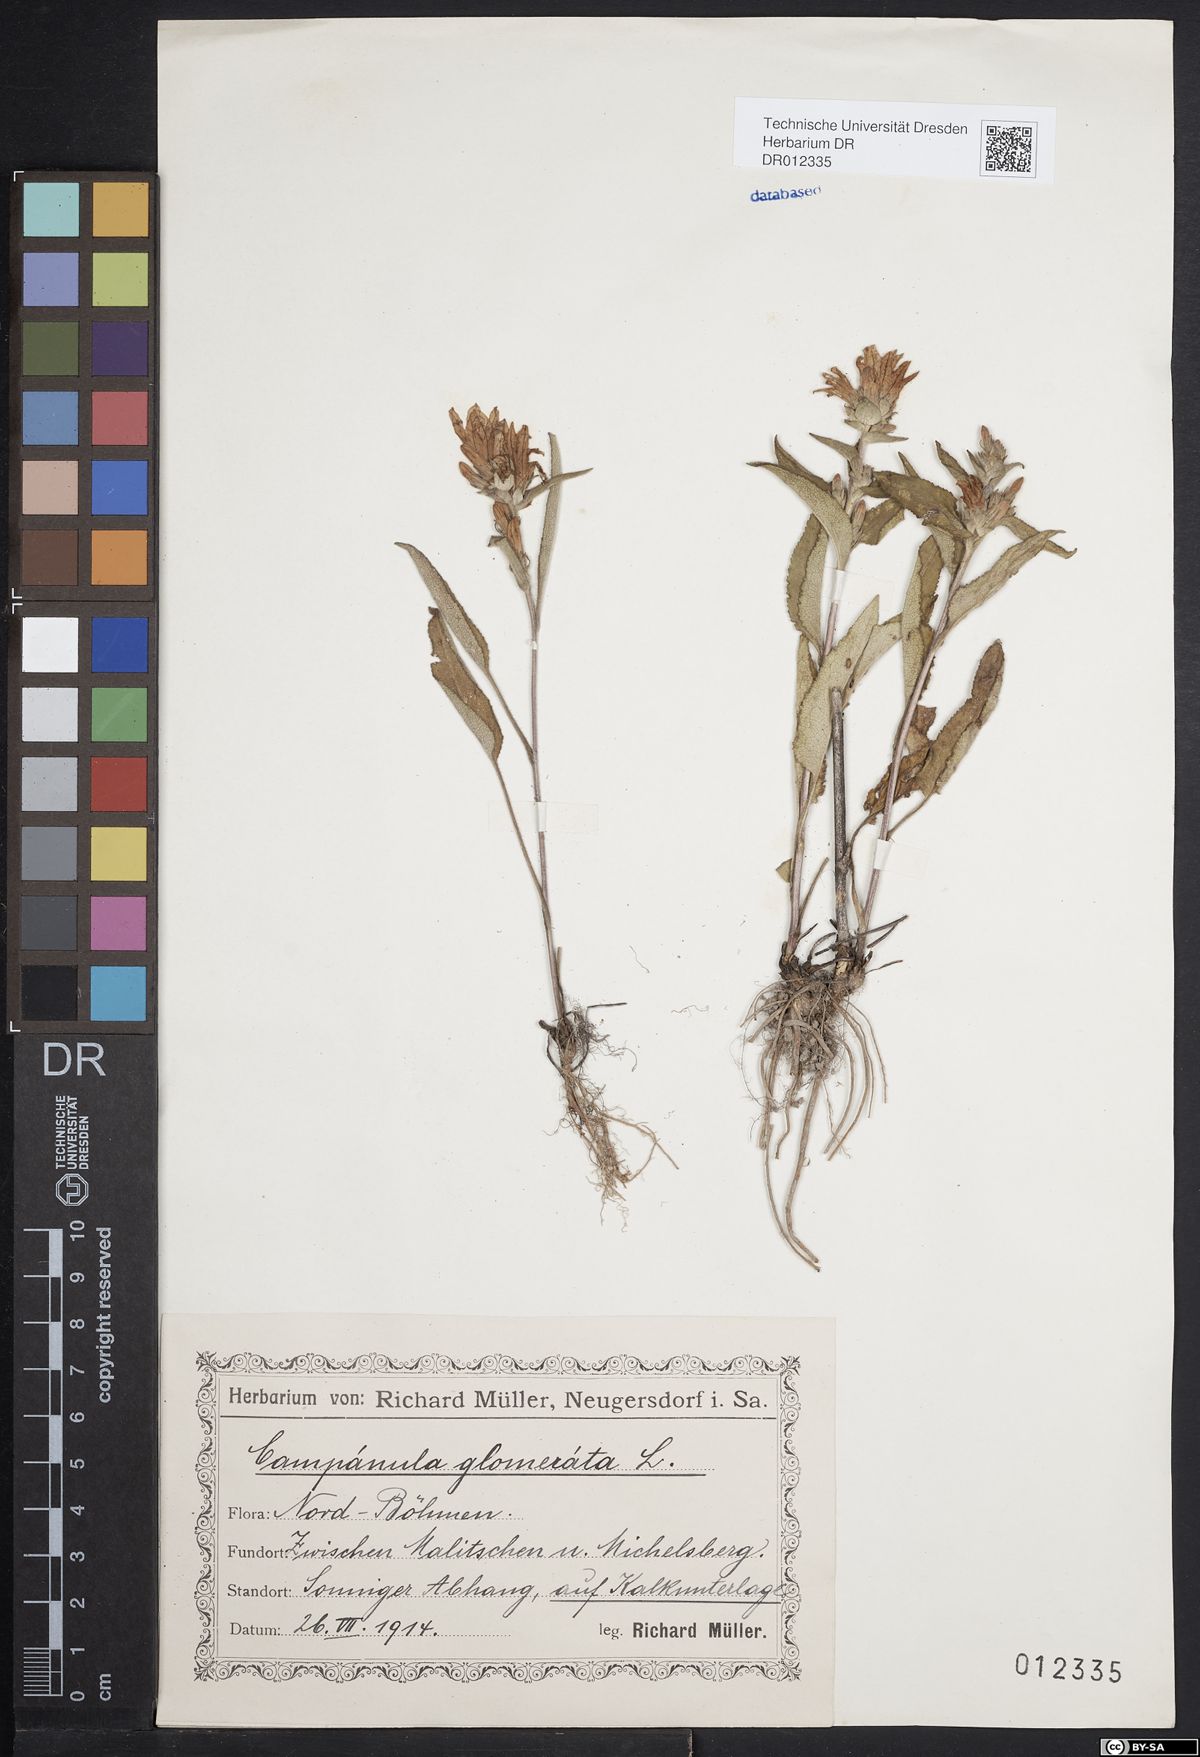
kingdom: Plantae
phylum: Tracheophyta
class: Magnoliopsida
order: Asterales
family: Campanulaceae
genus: Campanula
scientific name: Campanula glomerata
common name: Clustered bellflower
